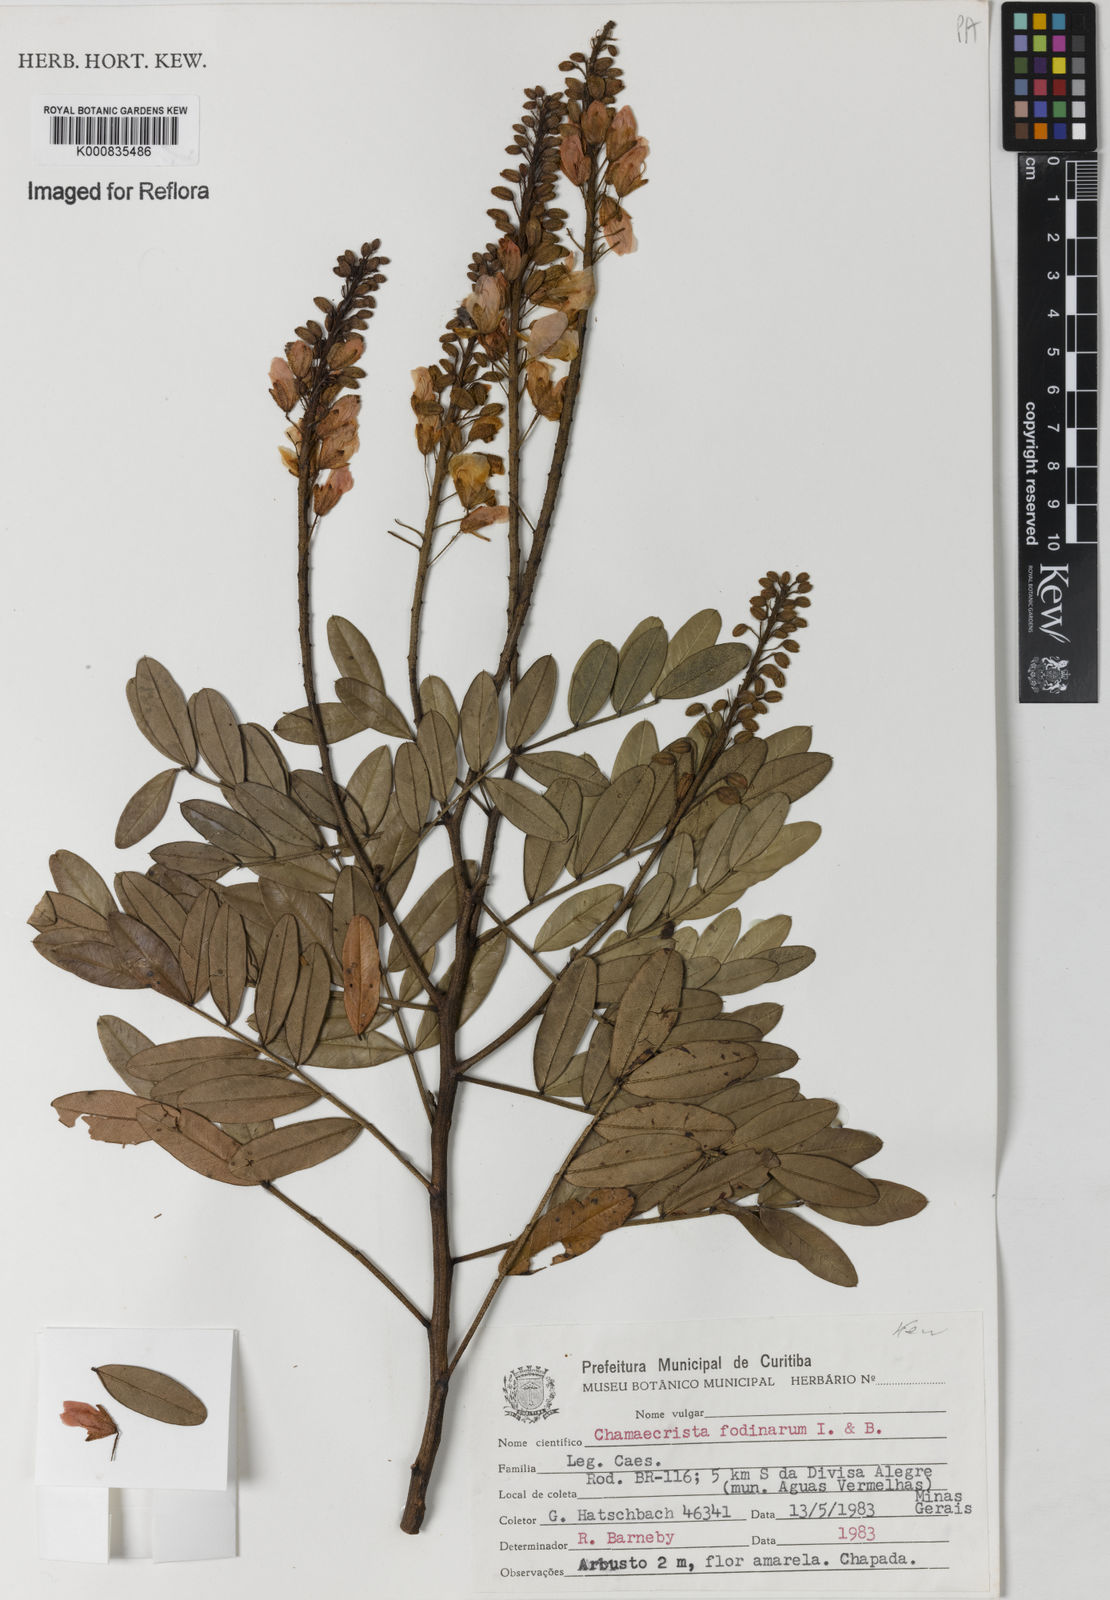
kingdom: Plantae
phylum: Tracheophyta
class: Magnoliopsida
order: Fabales
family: Fabaceae
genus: Chamaecrista
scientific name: Chamaecrista fodinarum
